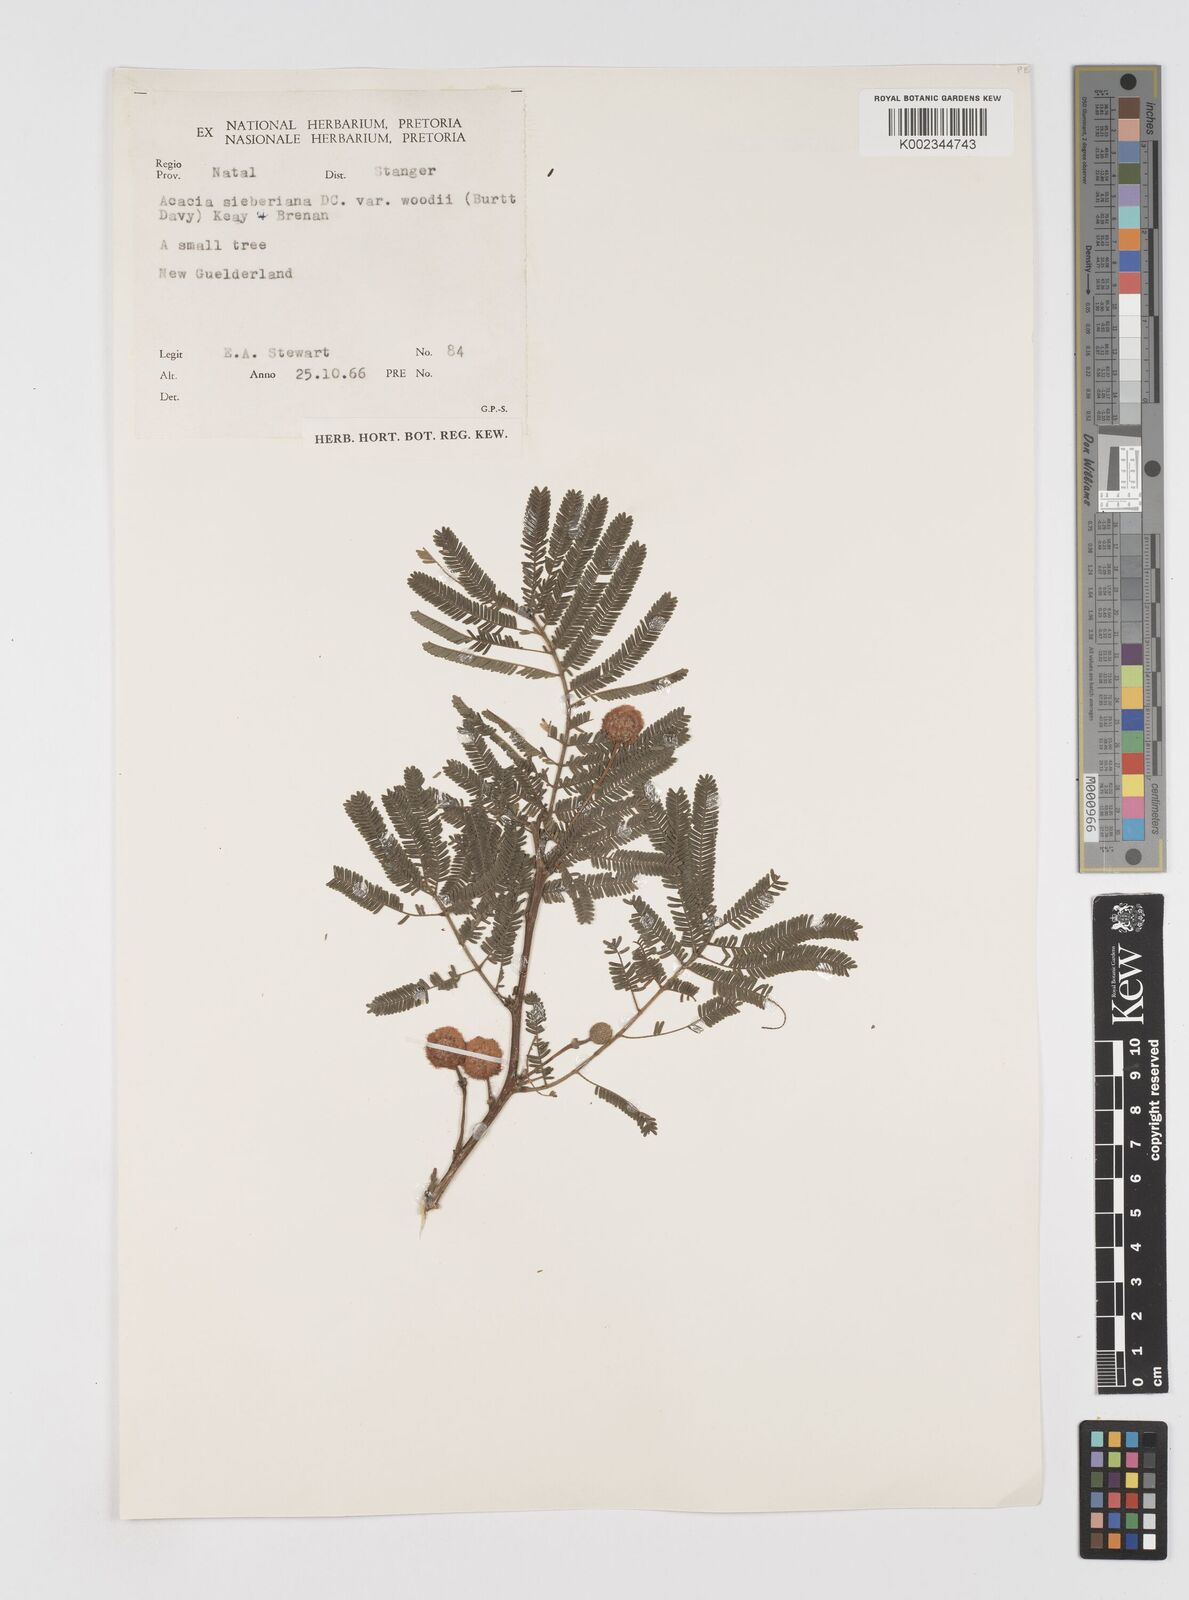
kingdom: Plantae
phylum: Tracheophyta
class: Magnoliopsida
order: Fabales
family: Fabaceae
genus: Acacia
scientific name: Acacia hamiltoniana
